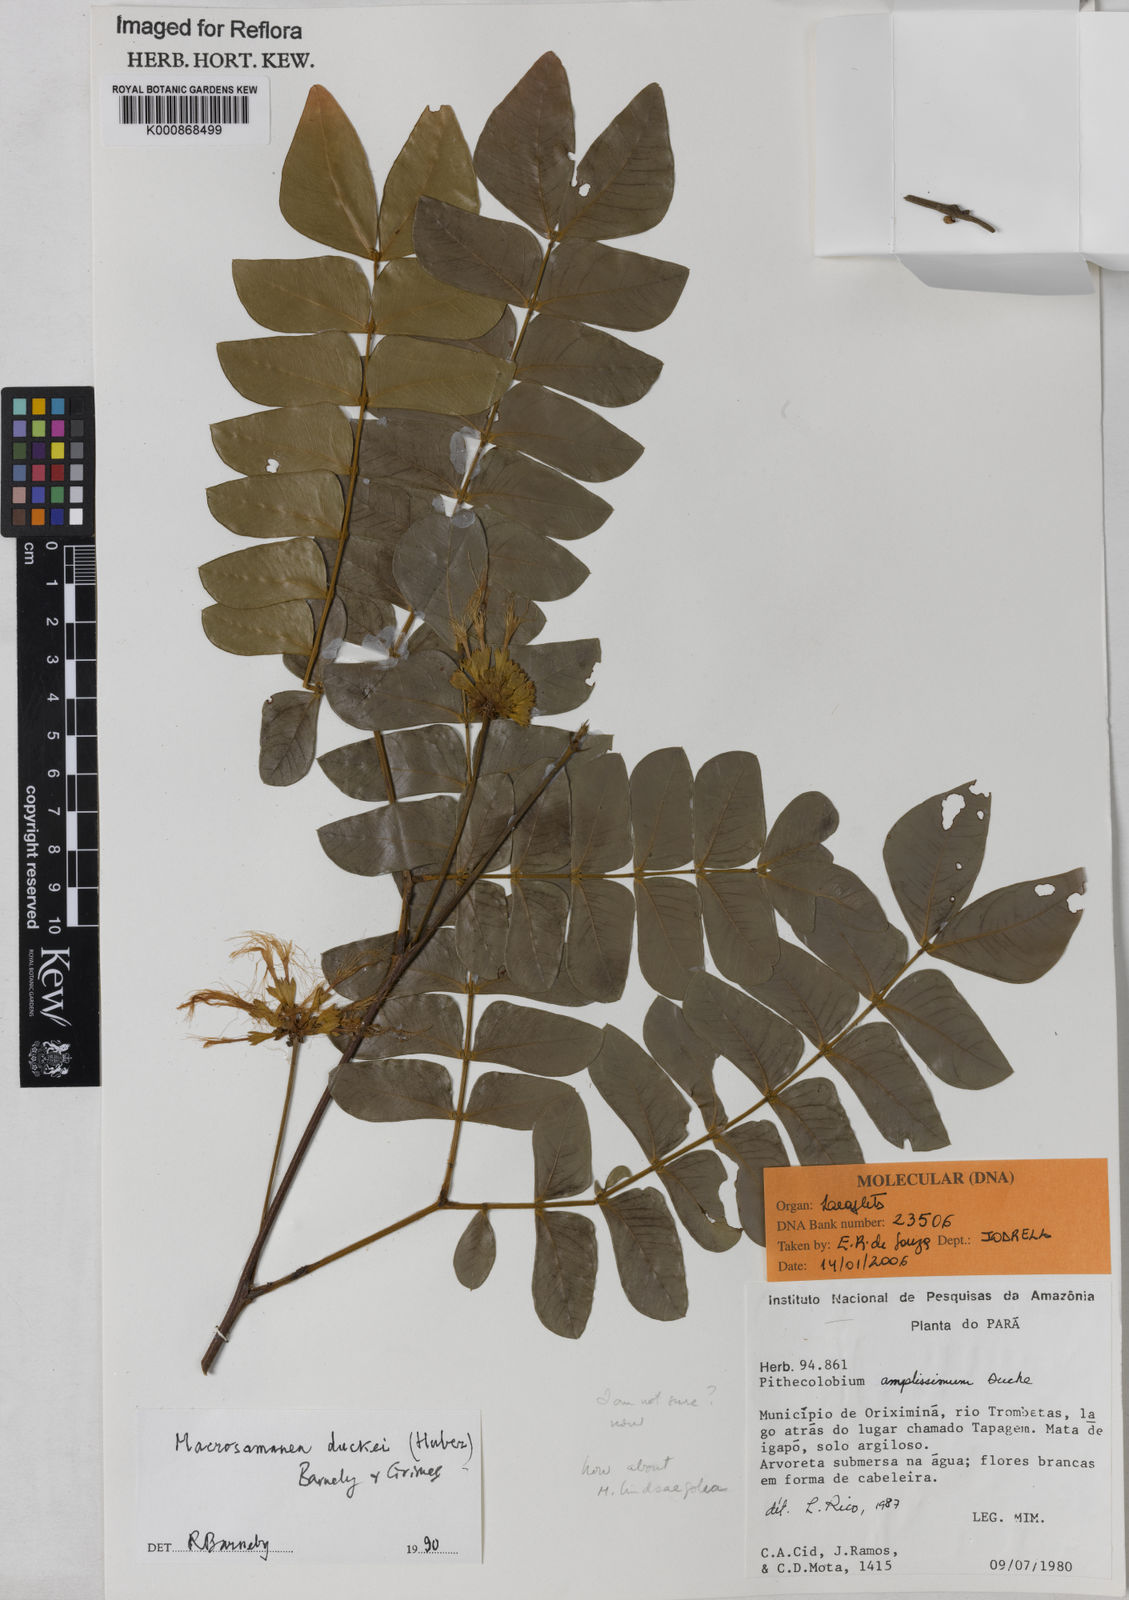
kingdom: Plantae
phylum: Tracheophyta
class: Magnoliopsida
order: Fabales
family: Fabaceae
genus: Macrosamanea
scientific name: Macrosamanea duckei
